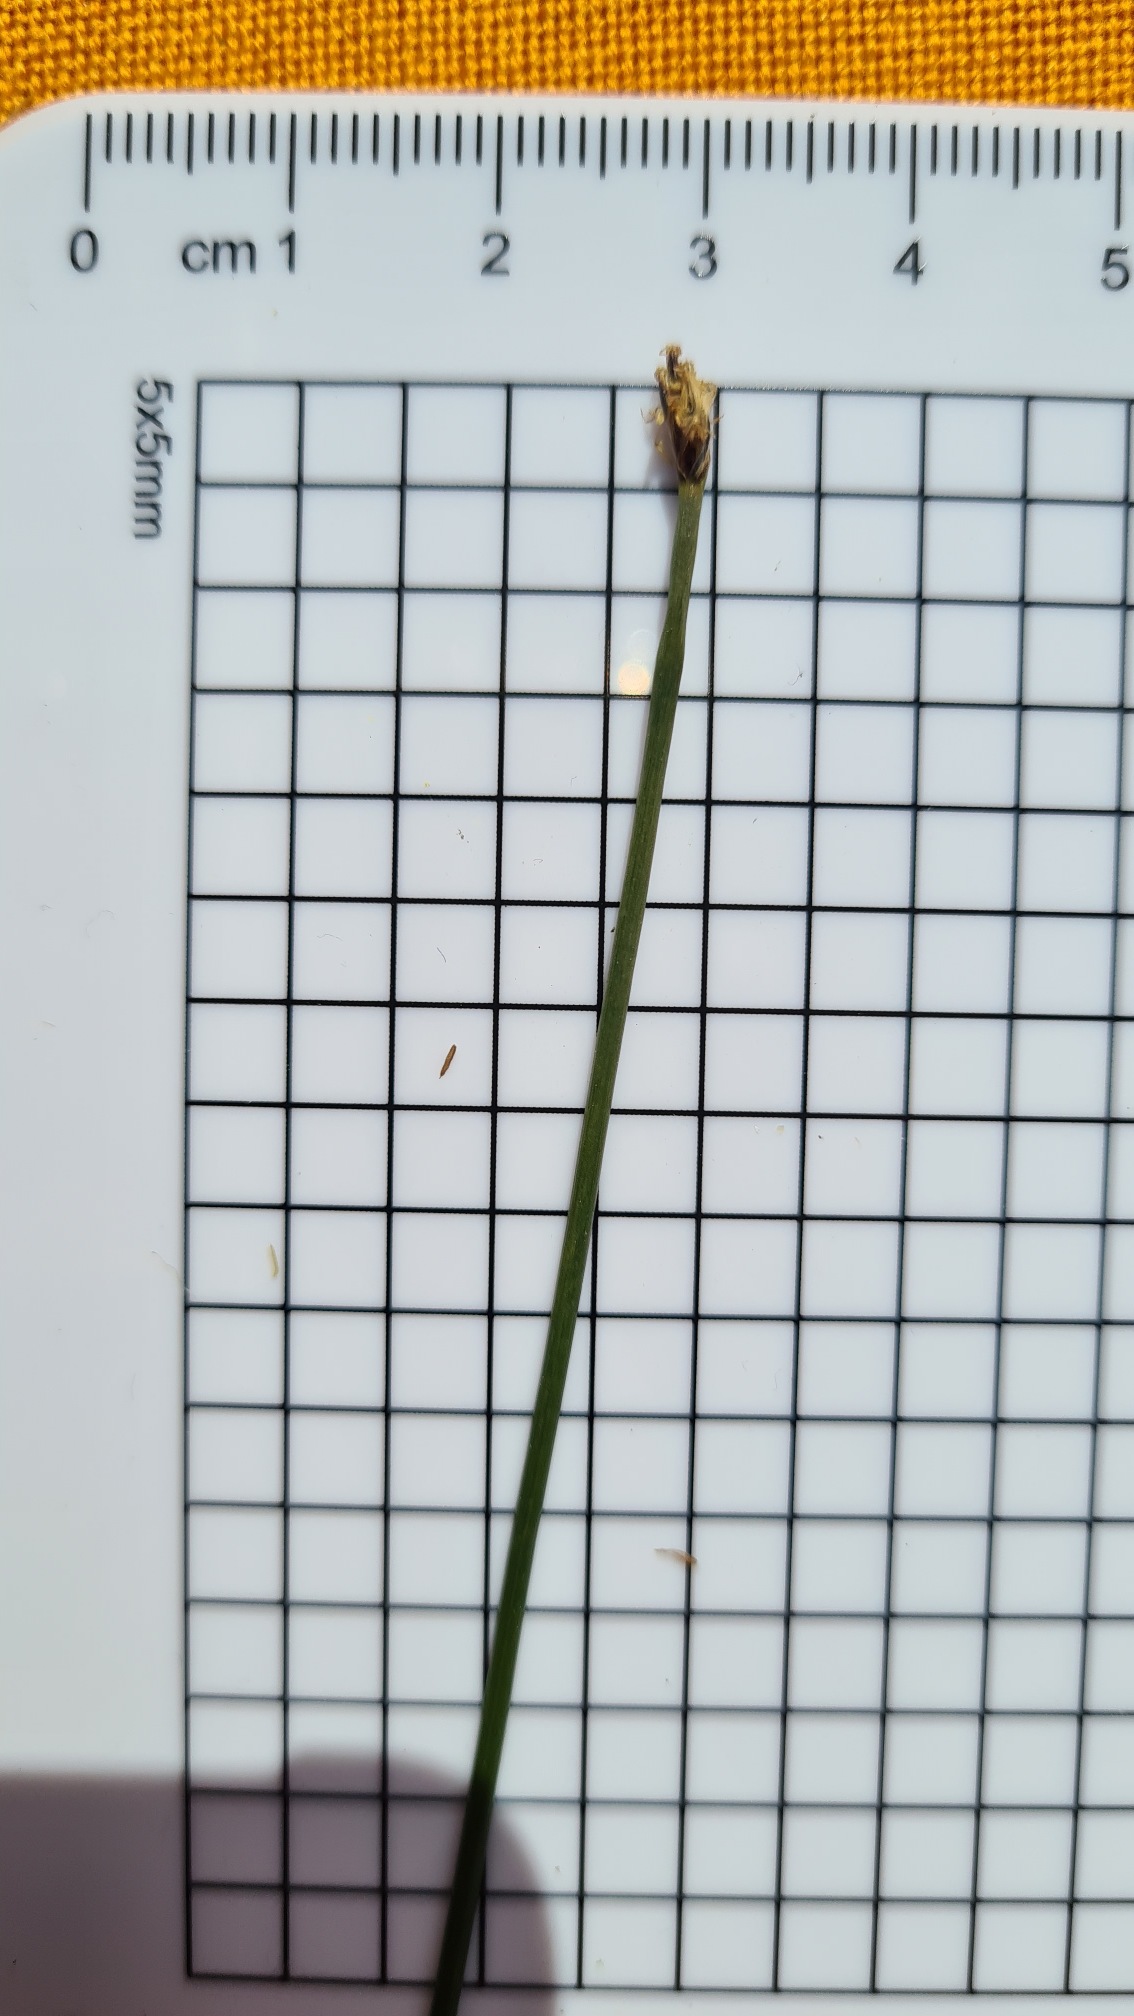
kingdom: Plantae
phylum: Tracheophyta
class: Liliopsida
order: Poales
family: Cyperaceae
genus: Eleocharis
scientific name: Eleocharis palustris
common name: Almindelig sumpstrå
